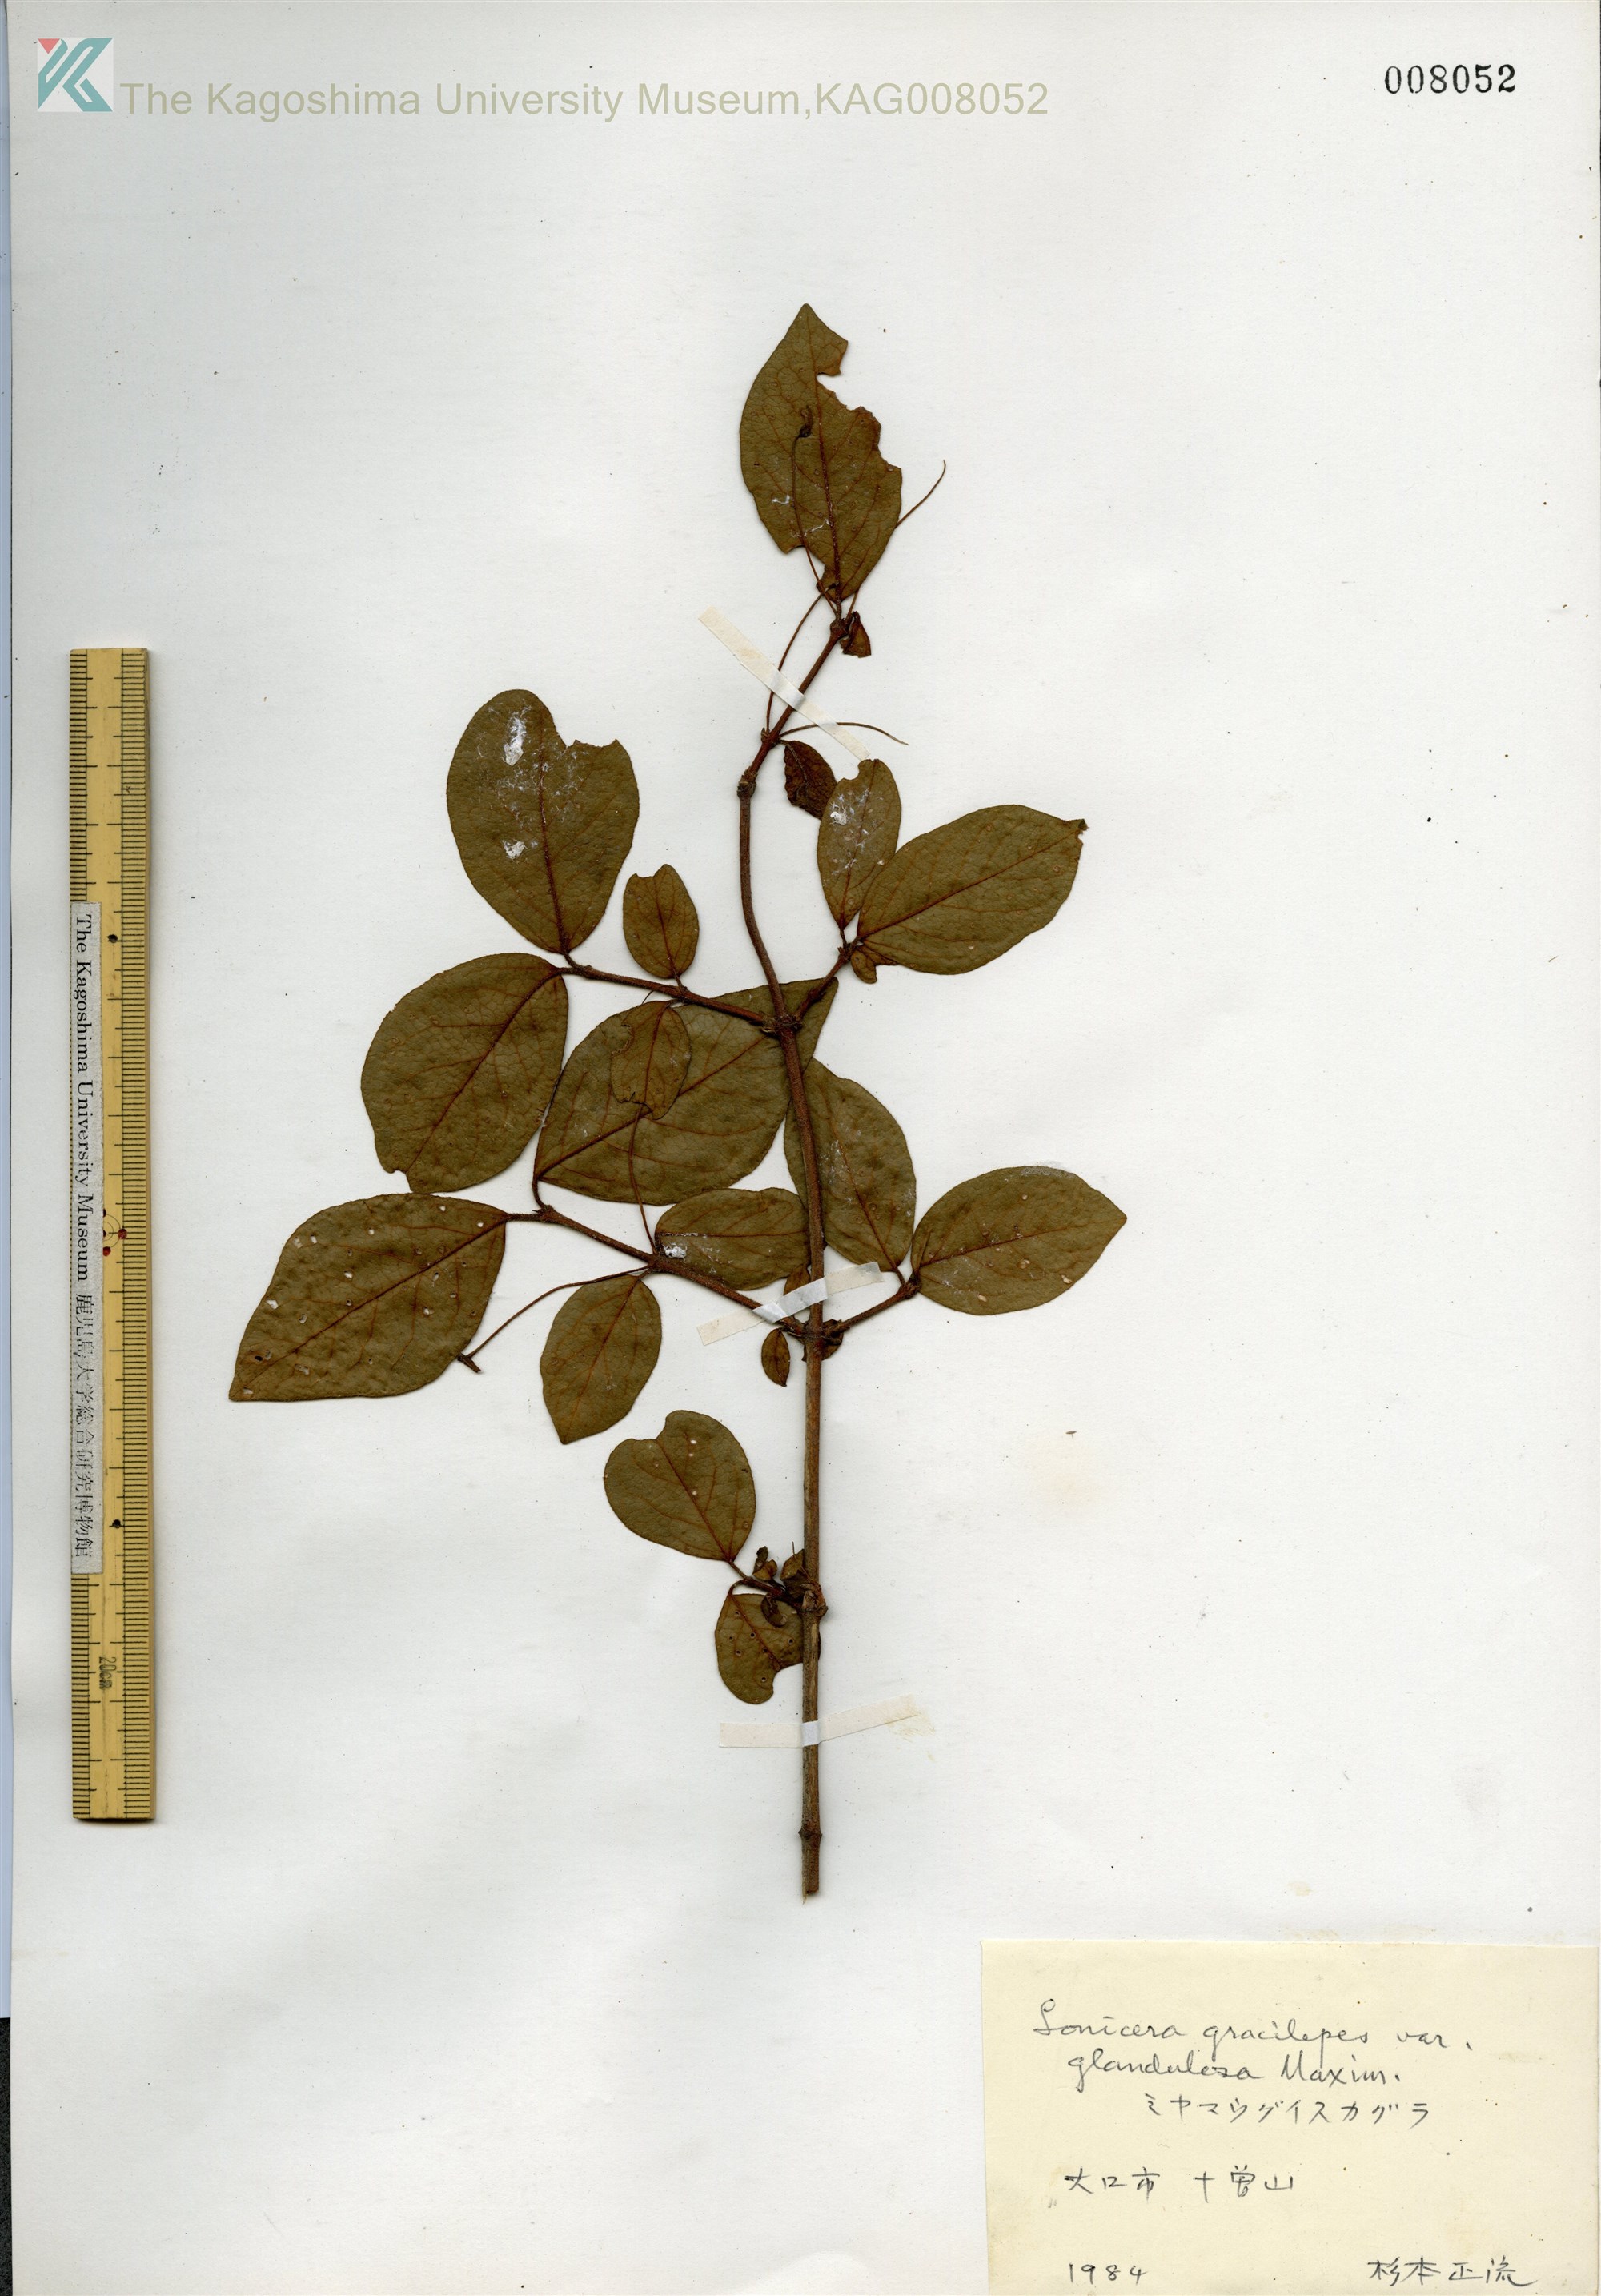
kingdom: Plantae
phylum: Tracheophyta
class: Magnoliopsida
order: Dipsacales
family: Caprifoliaceae
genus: Lonicera
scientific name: Lonicera gracilipes
